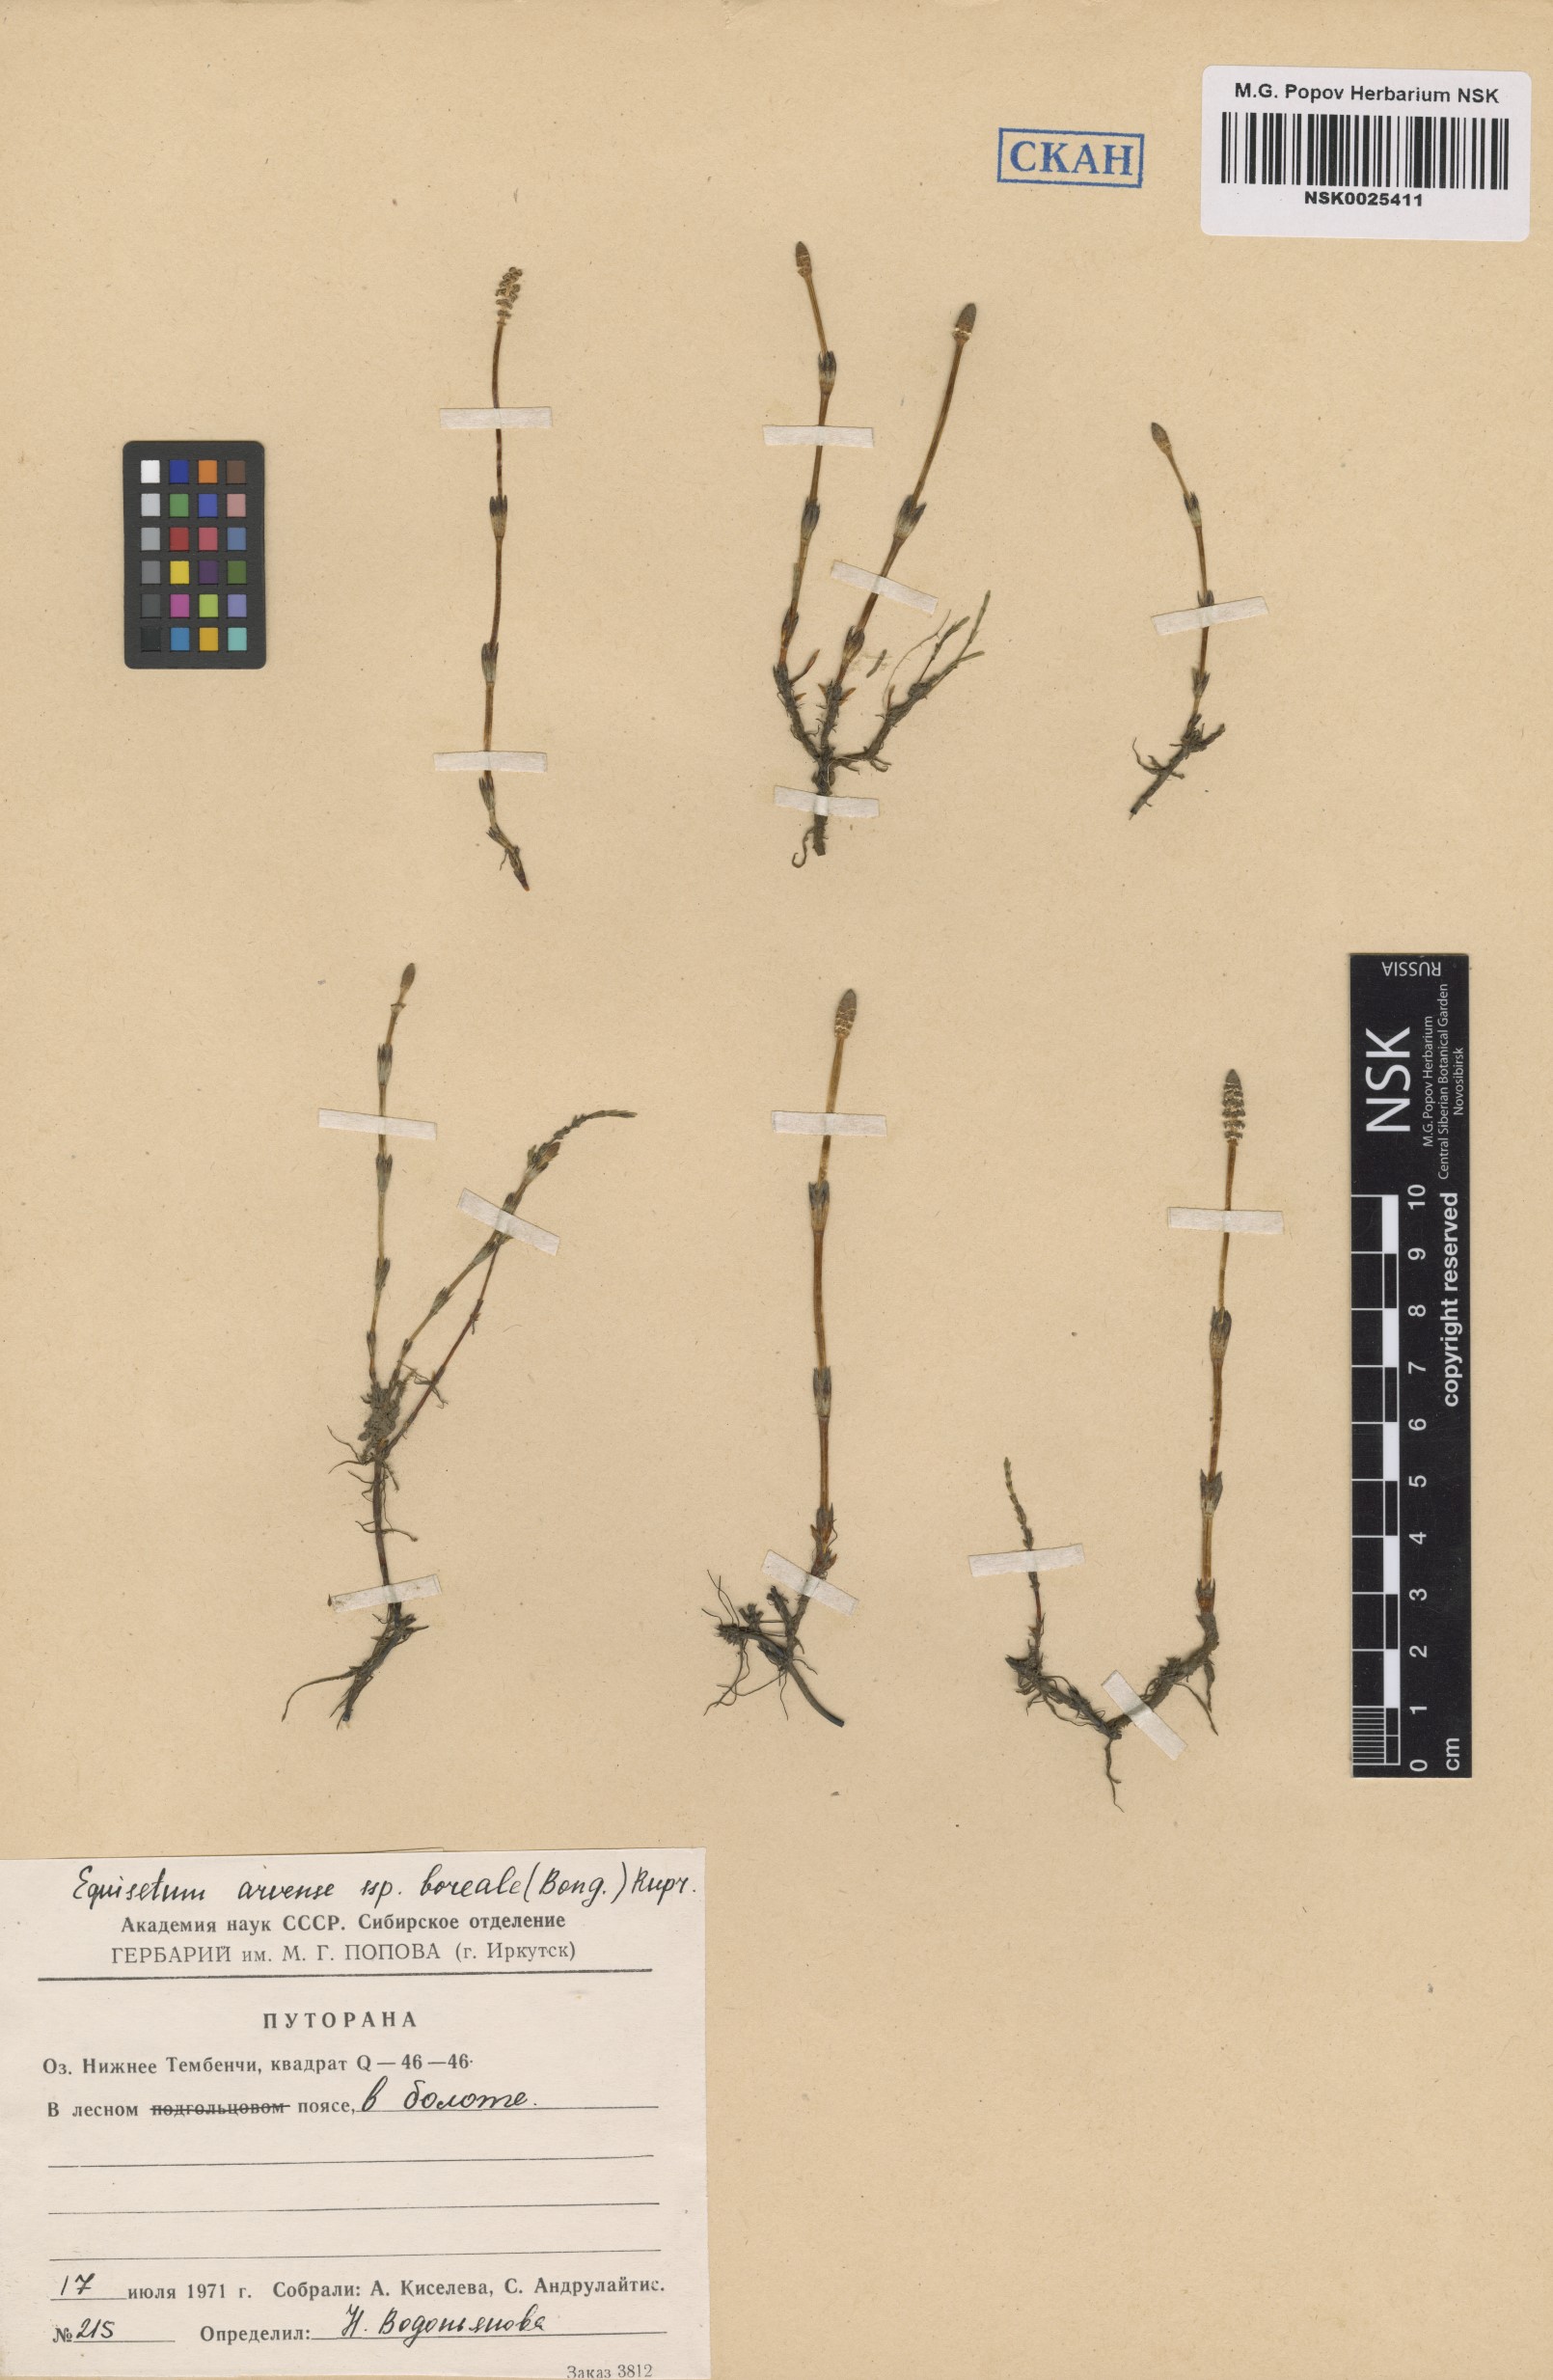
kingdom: Plantae
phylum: Tracheophyta
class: Polypodiopsida
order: Equisetales
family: Equisetaceae
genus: Equisetum
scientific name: Equisetum arvense
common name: Field horsetail
